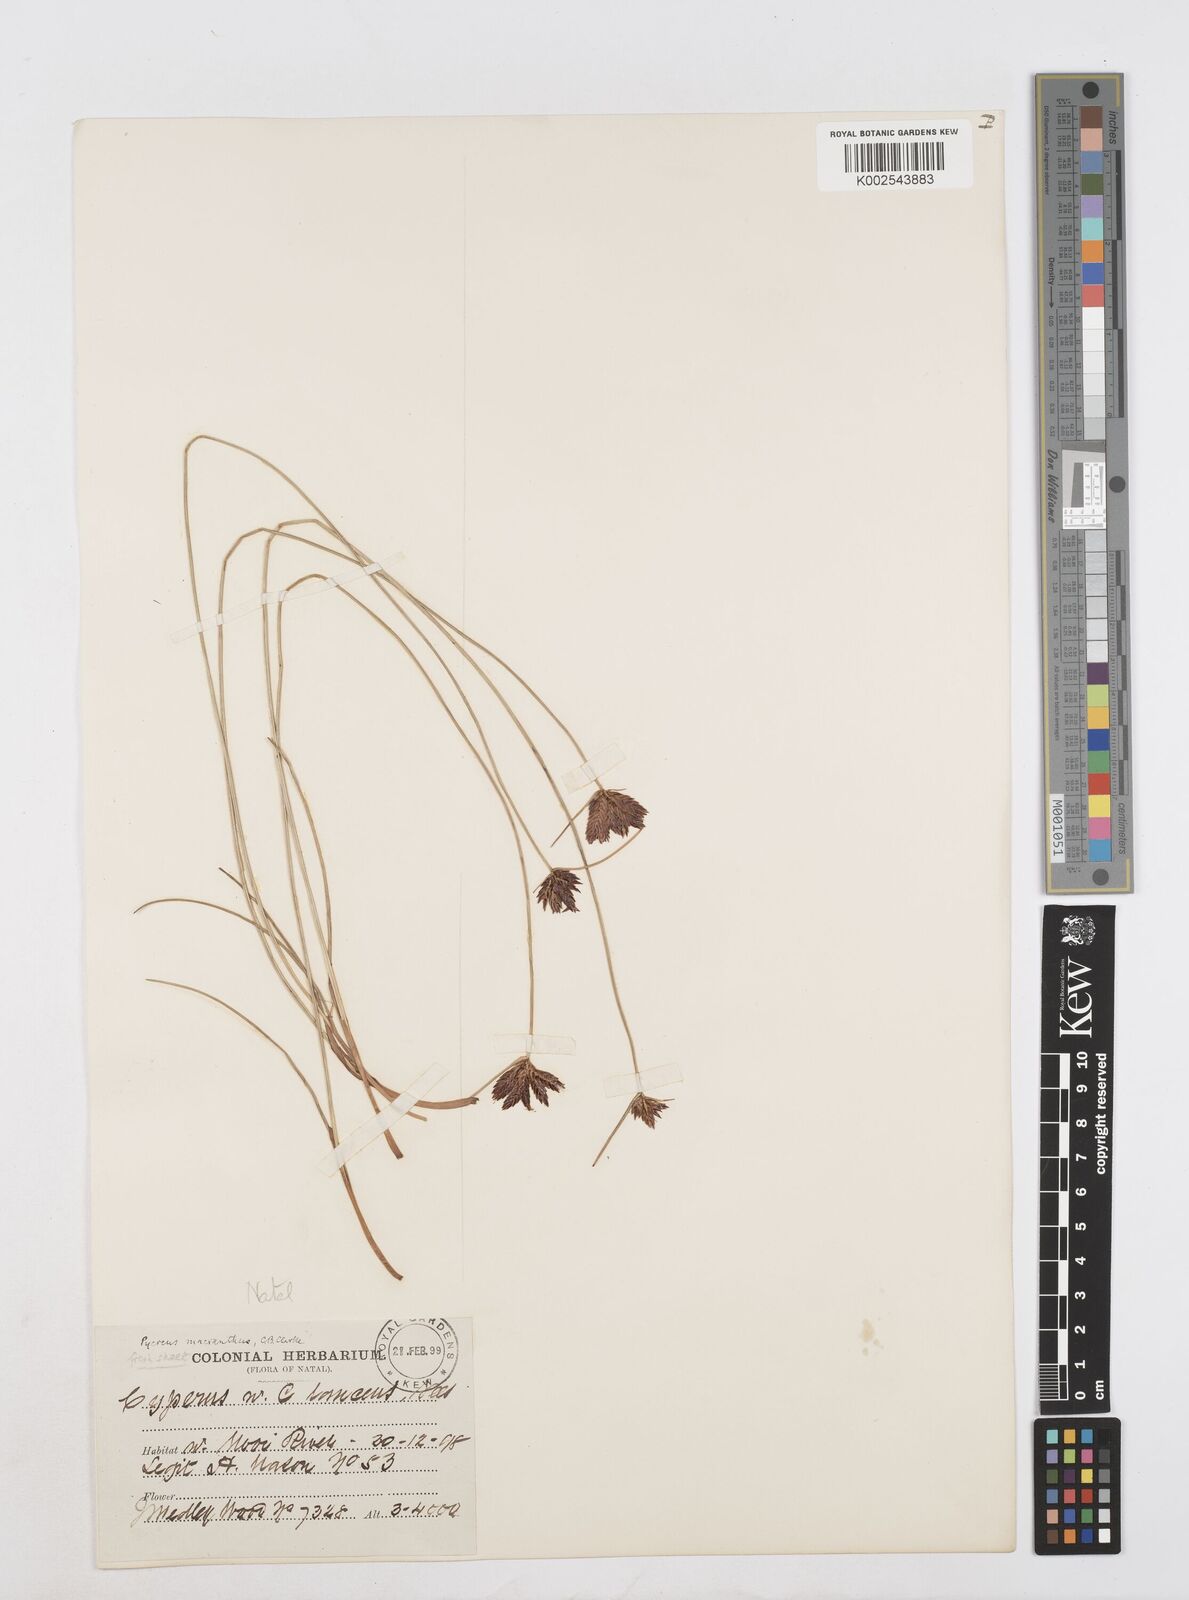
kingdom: Plantae
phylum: Tracheophyta
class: Liliopsida
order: Poales
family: Cyperaceae
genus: Cyperus
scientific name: Cyperus nigricans
